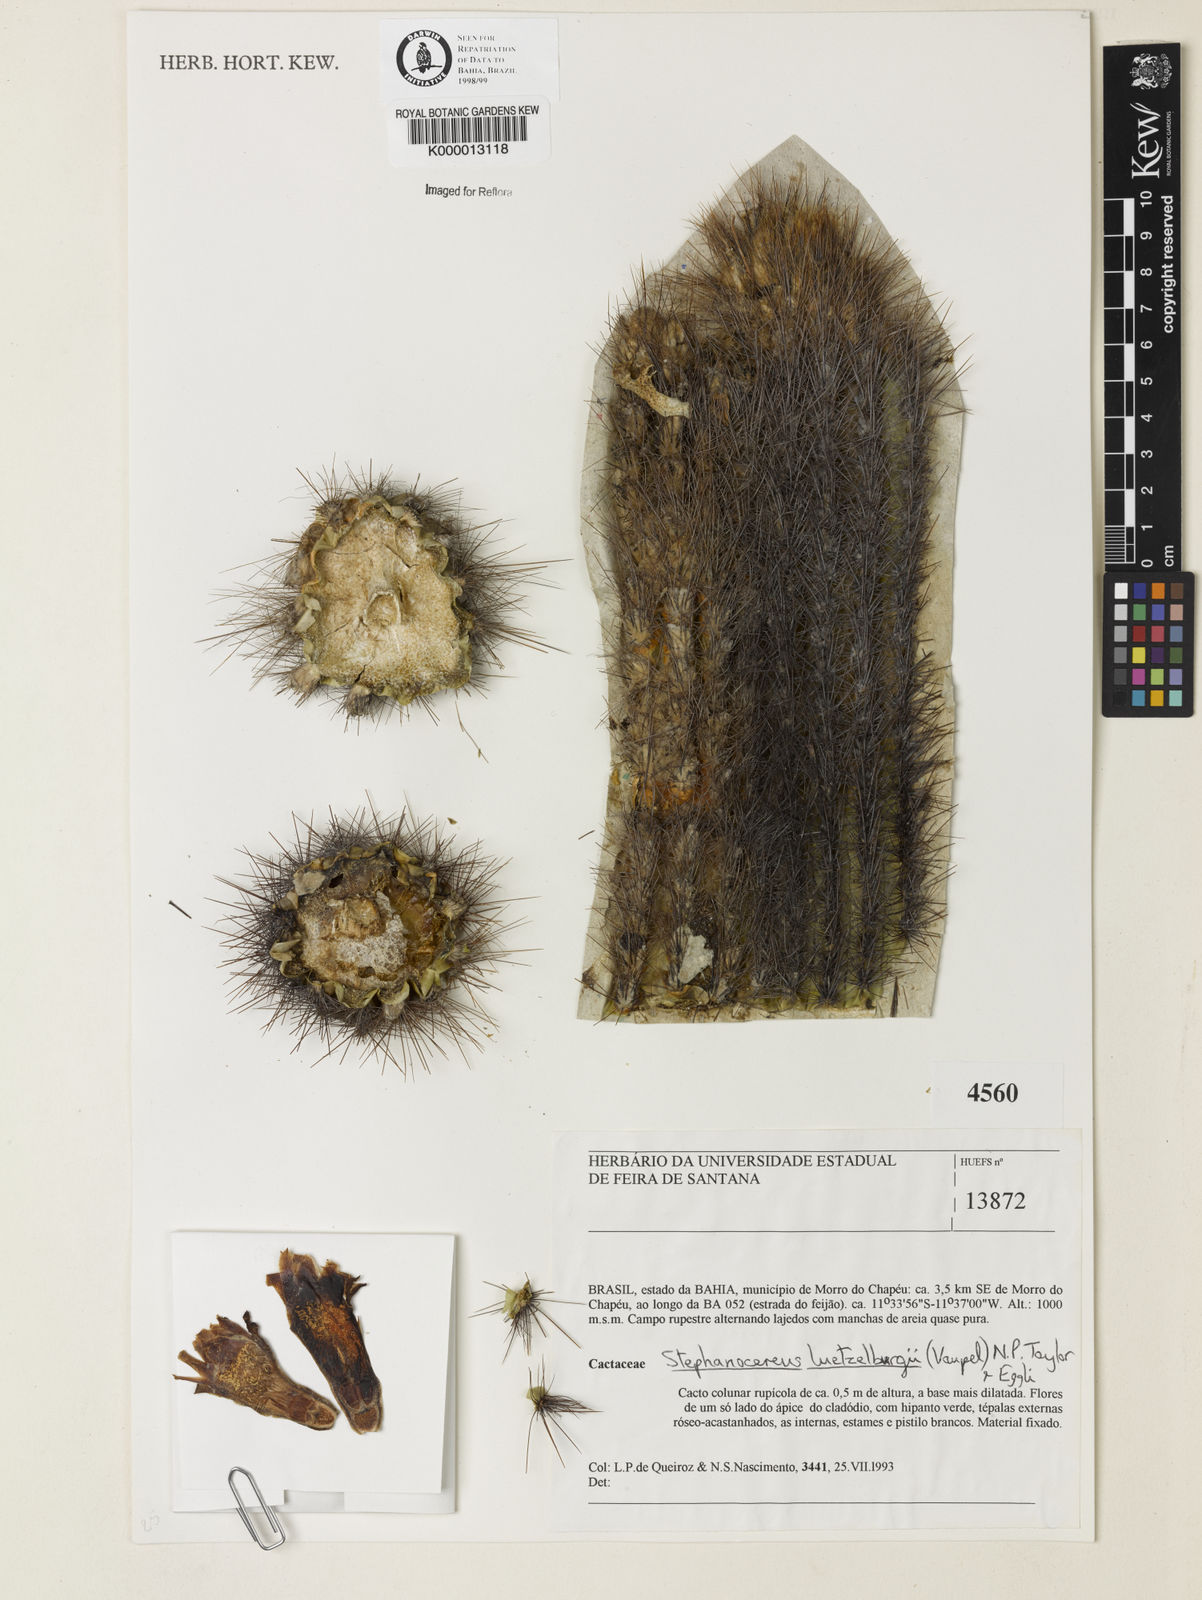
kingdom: Plantae
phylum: Tracheophyta
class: Magnoliopsida
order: Caryophyllales
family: Cactaceae
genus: Lagenosocereus
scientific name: Lagenosocereus luetzelburgii
